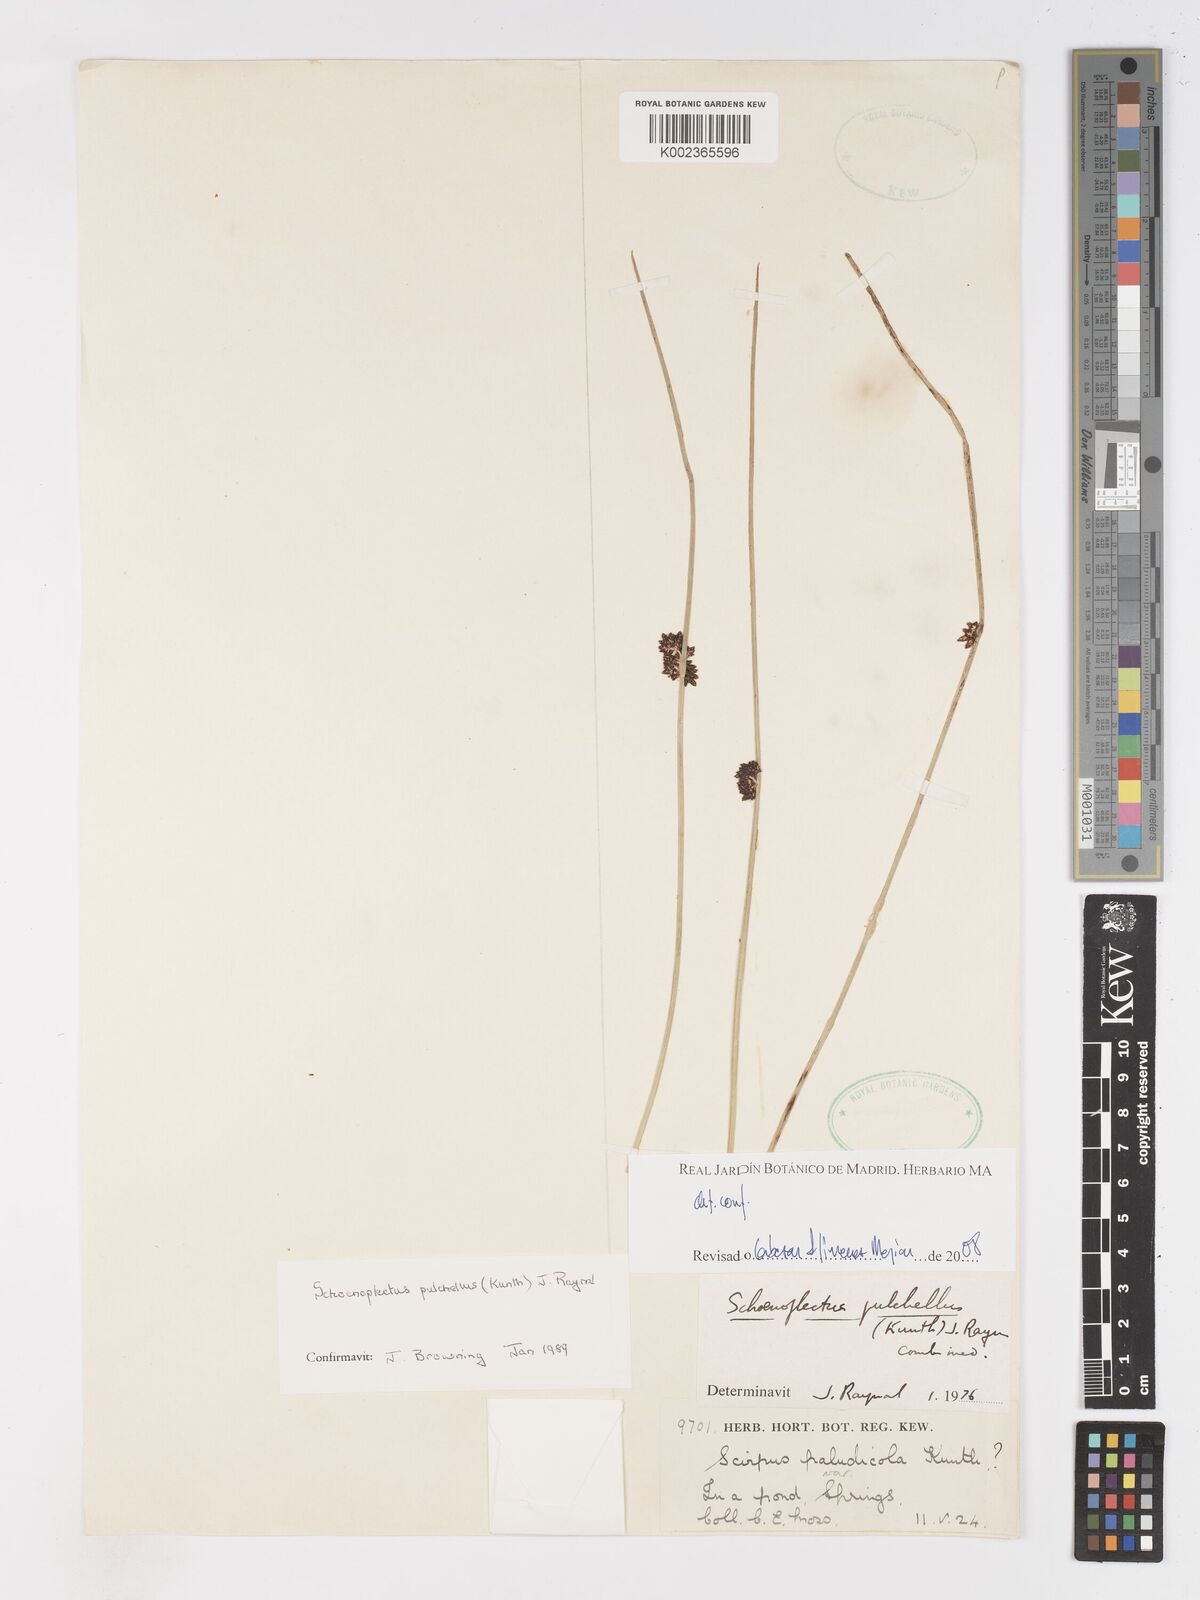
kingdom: Plantae
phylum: Tracheophyta
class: Liliopsida
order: Poales
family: Cyperaceae
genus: Schoenoplectiella
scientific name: Schoenoplectiella pulchella
